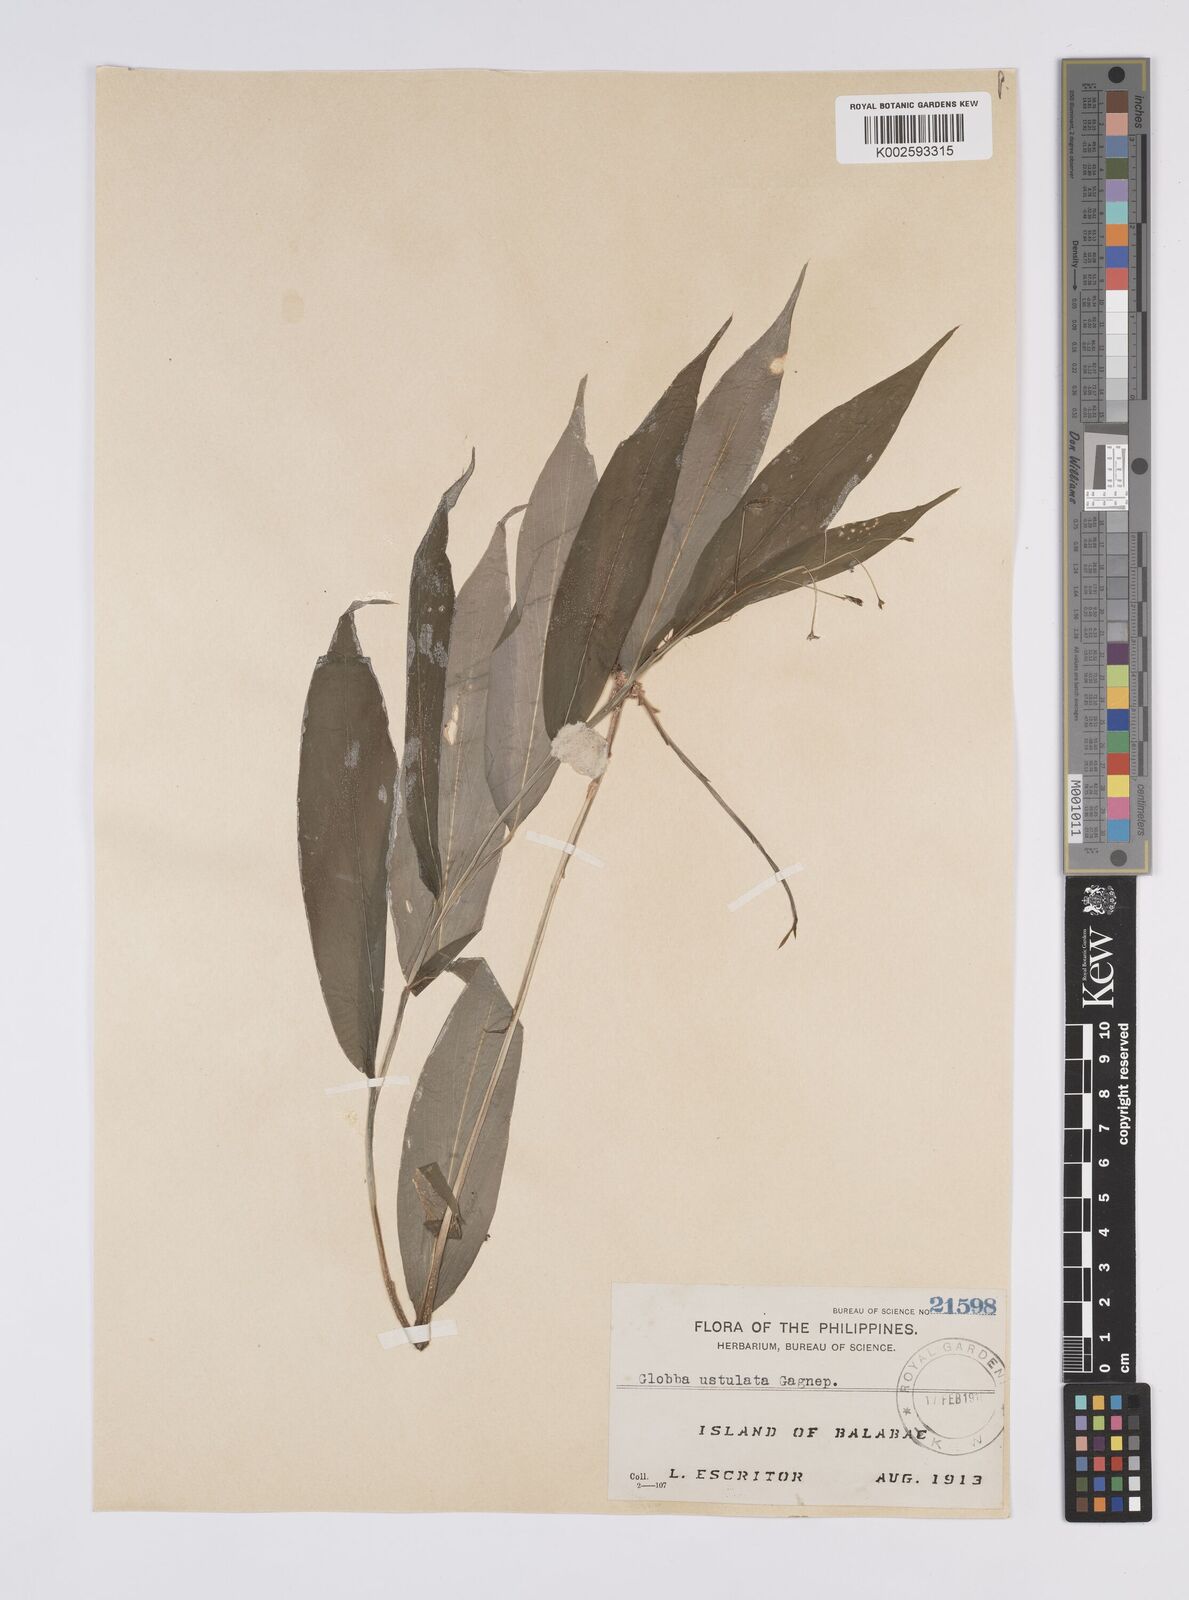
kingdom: Plantae
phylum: Tracheophyta
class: Liliopsida
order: Zingiberales
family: Zingiberaceae
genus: Globba
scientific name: Globba ustulata
